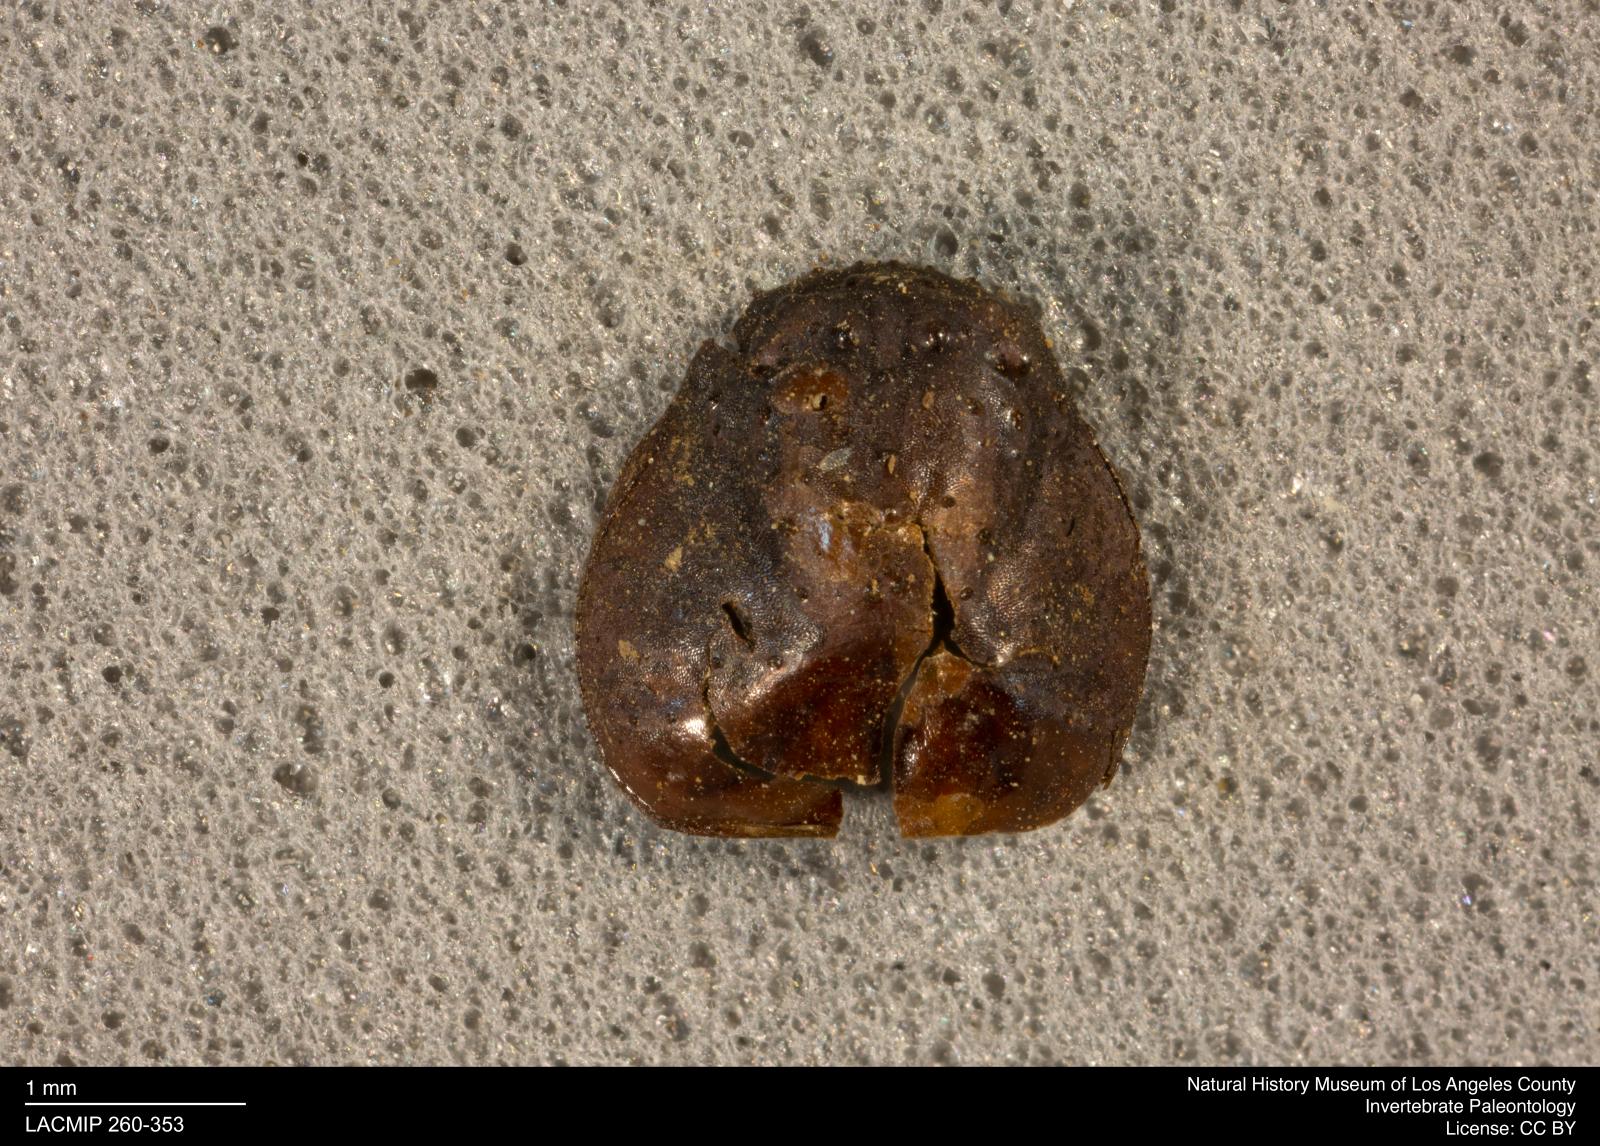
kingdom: Animalia
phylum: Arthropoda
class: Arachnida
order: Araneae
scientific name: Araneae
